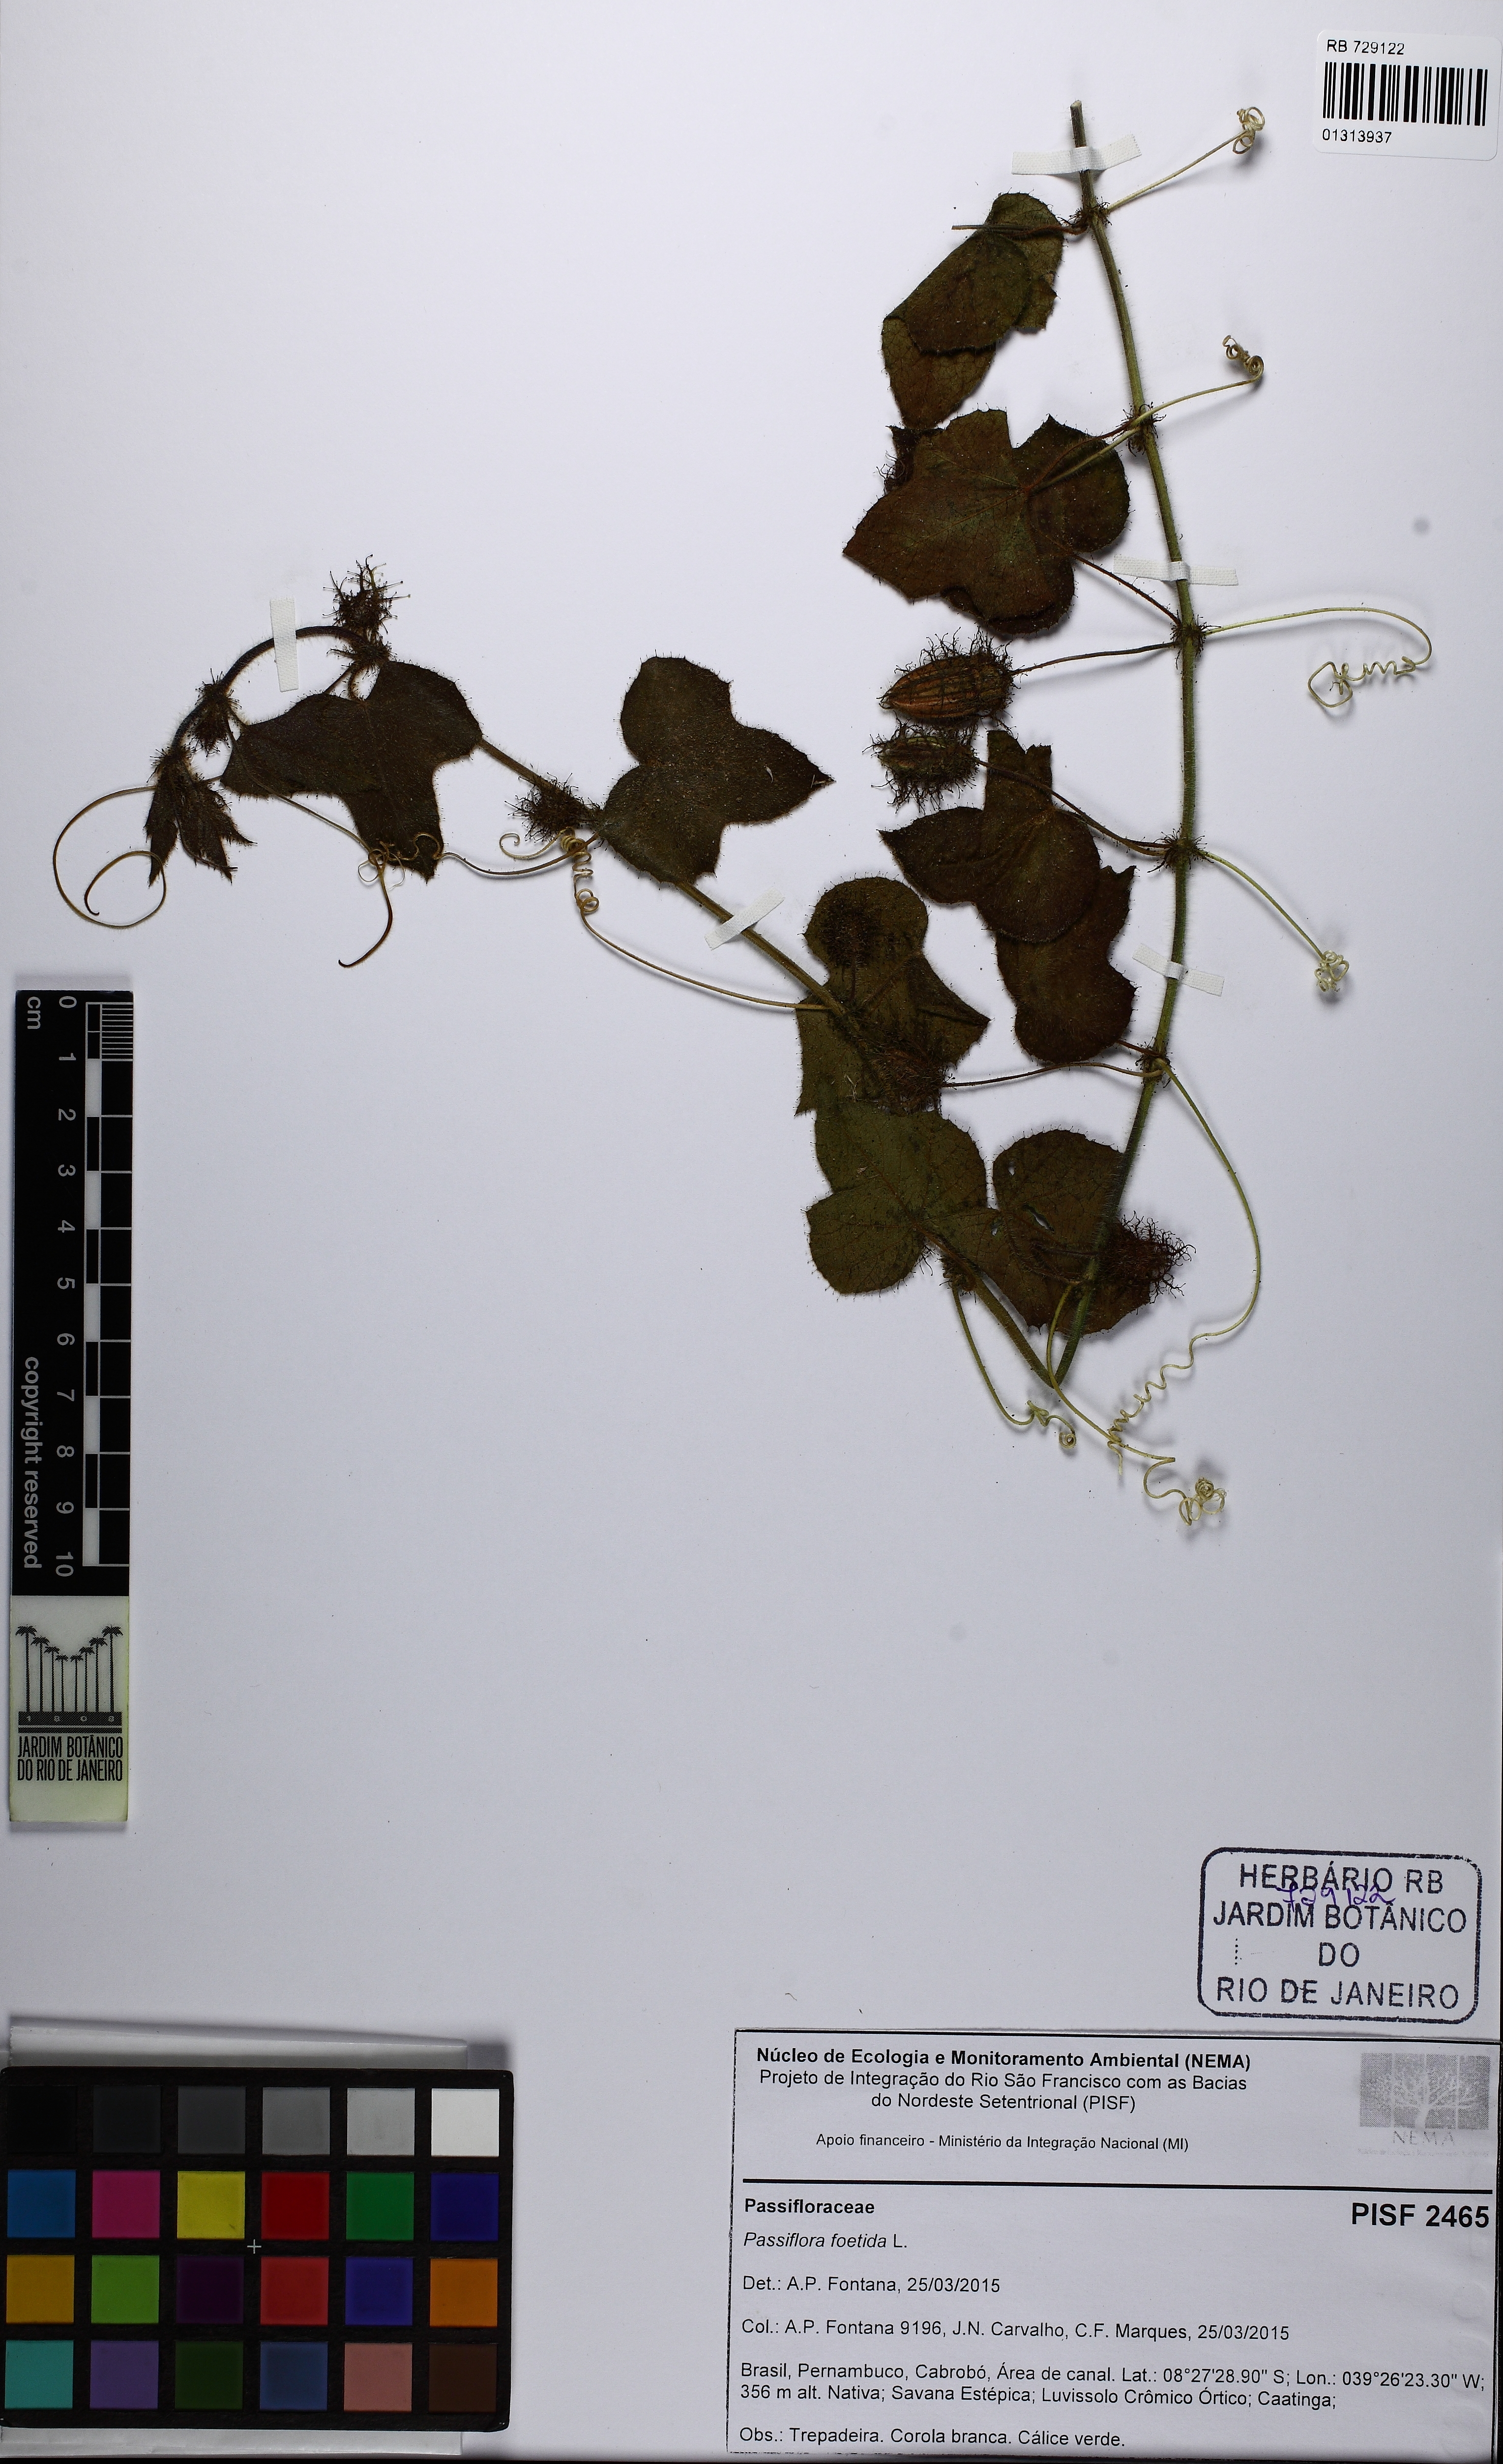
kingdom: Plantae
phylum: Tracheophyta
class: Magnoliopsida
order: Malpighiales
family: Passifloraceae
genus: Passiflora
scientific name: Passiflora foetida
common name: Fetid passionflower
